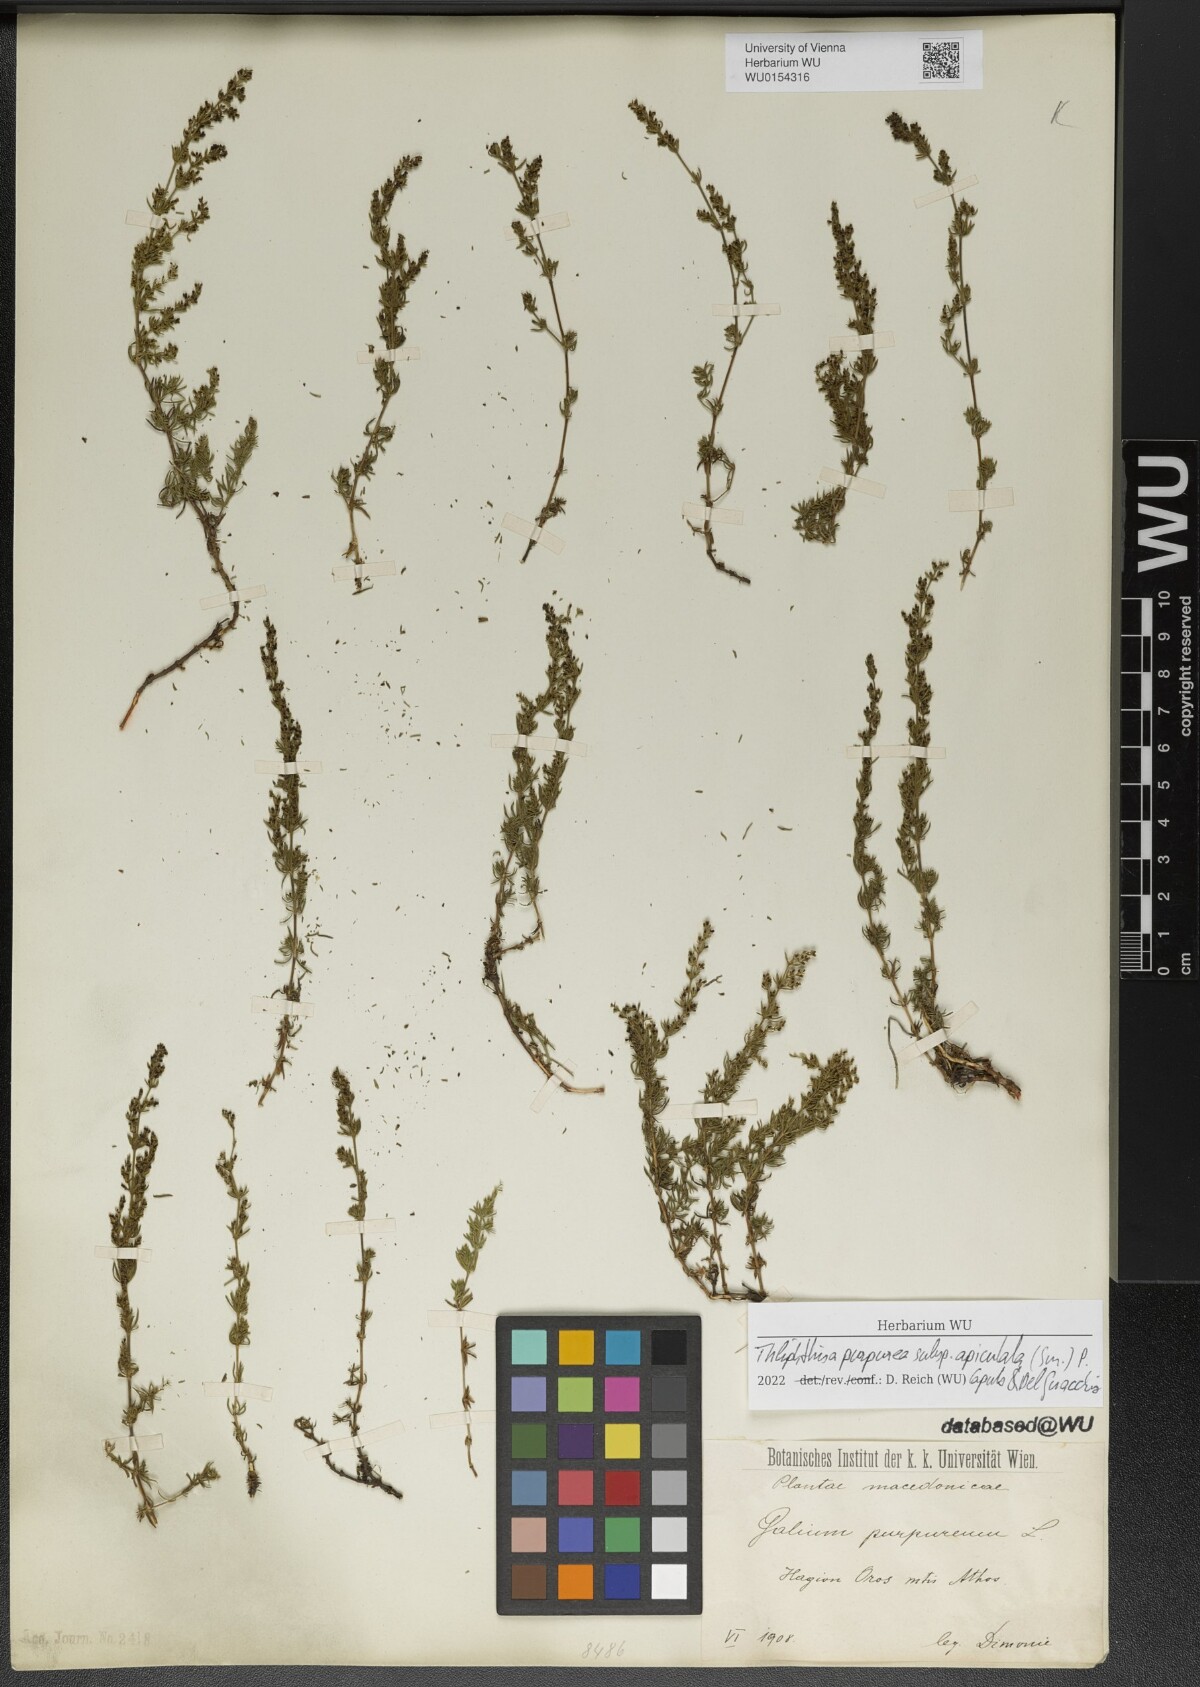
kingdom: Plantae
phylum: Tracheophyta
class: Magnoliopsida
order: Gentianales
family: Rubiaceae
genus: Thliphthisa
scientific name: Thliphthisa purpurea
